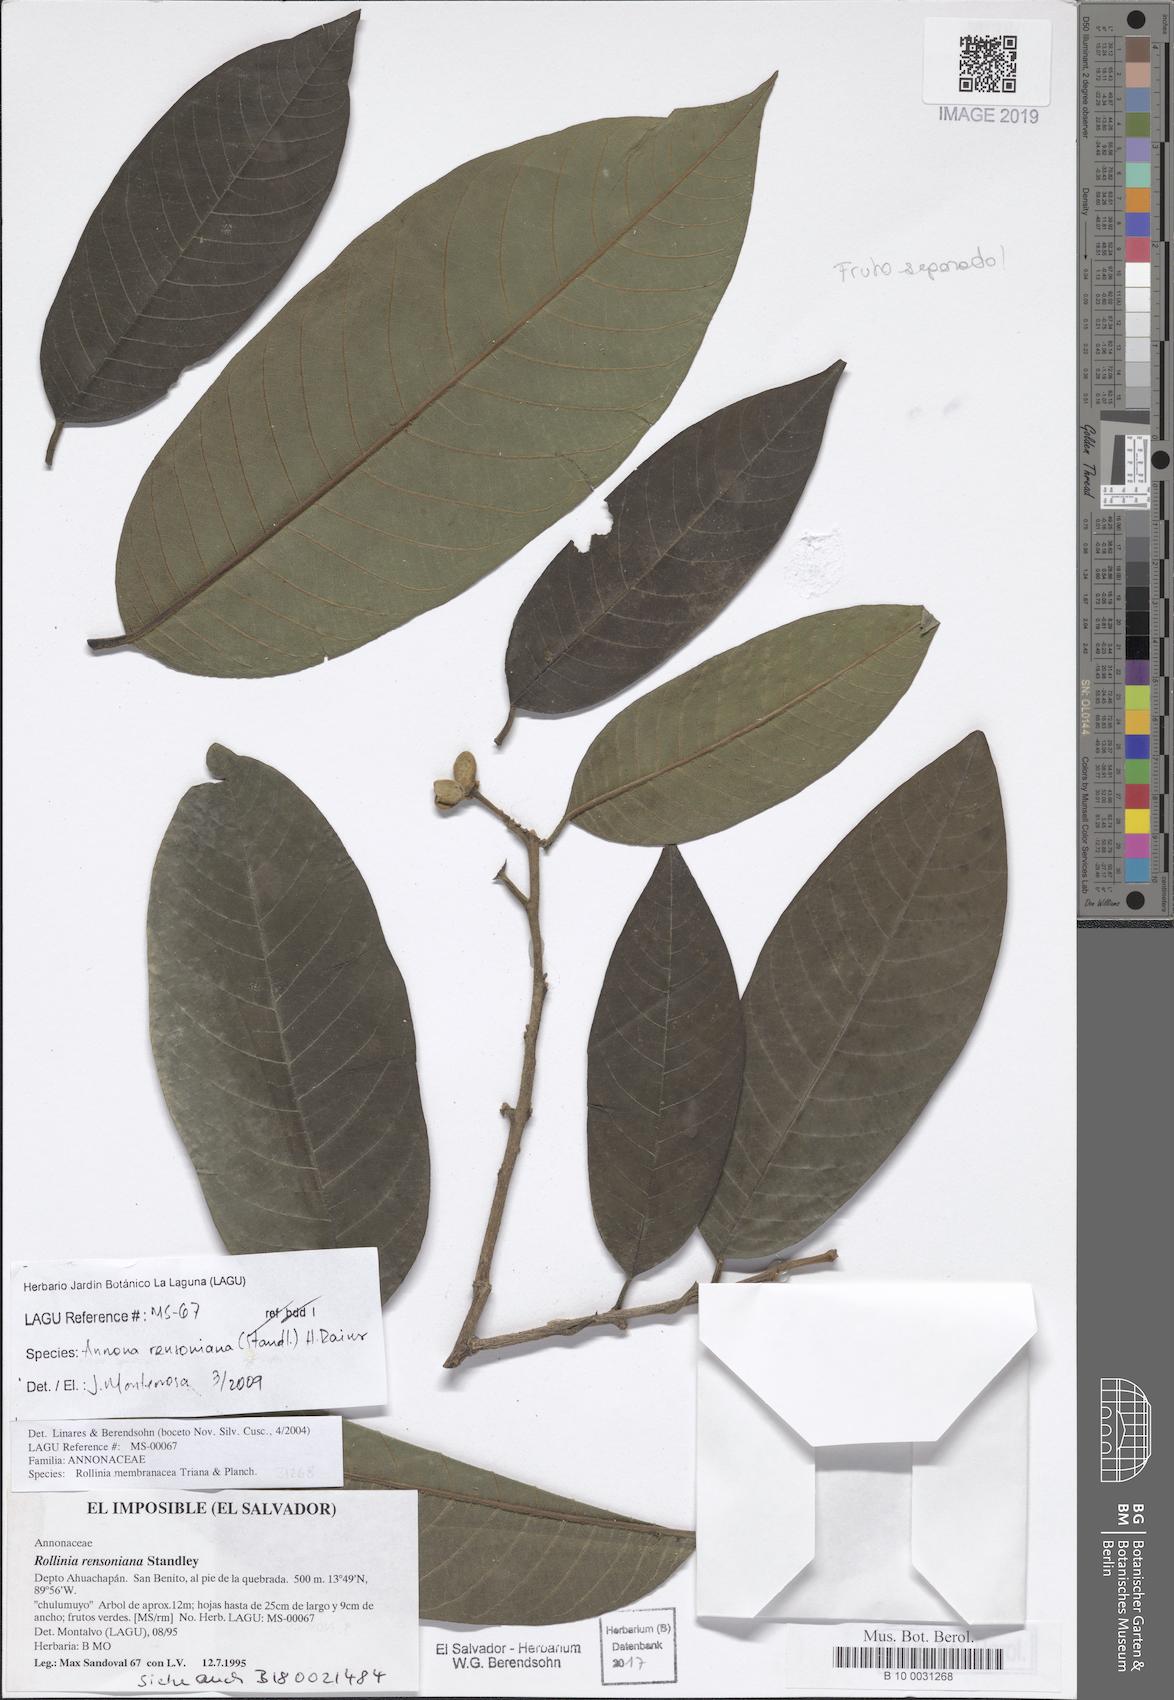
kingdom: Plantae
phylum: Tracheophyta
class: Magnoliopsida
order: Magnoliales
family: Annonaceae
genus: Annona
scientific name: Annona rensoniana
